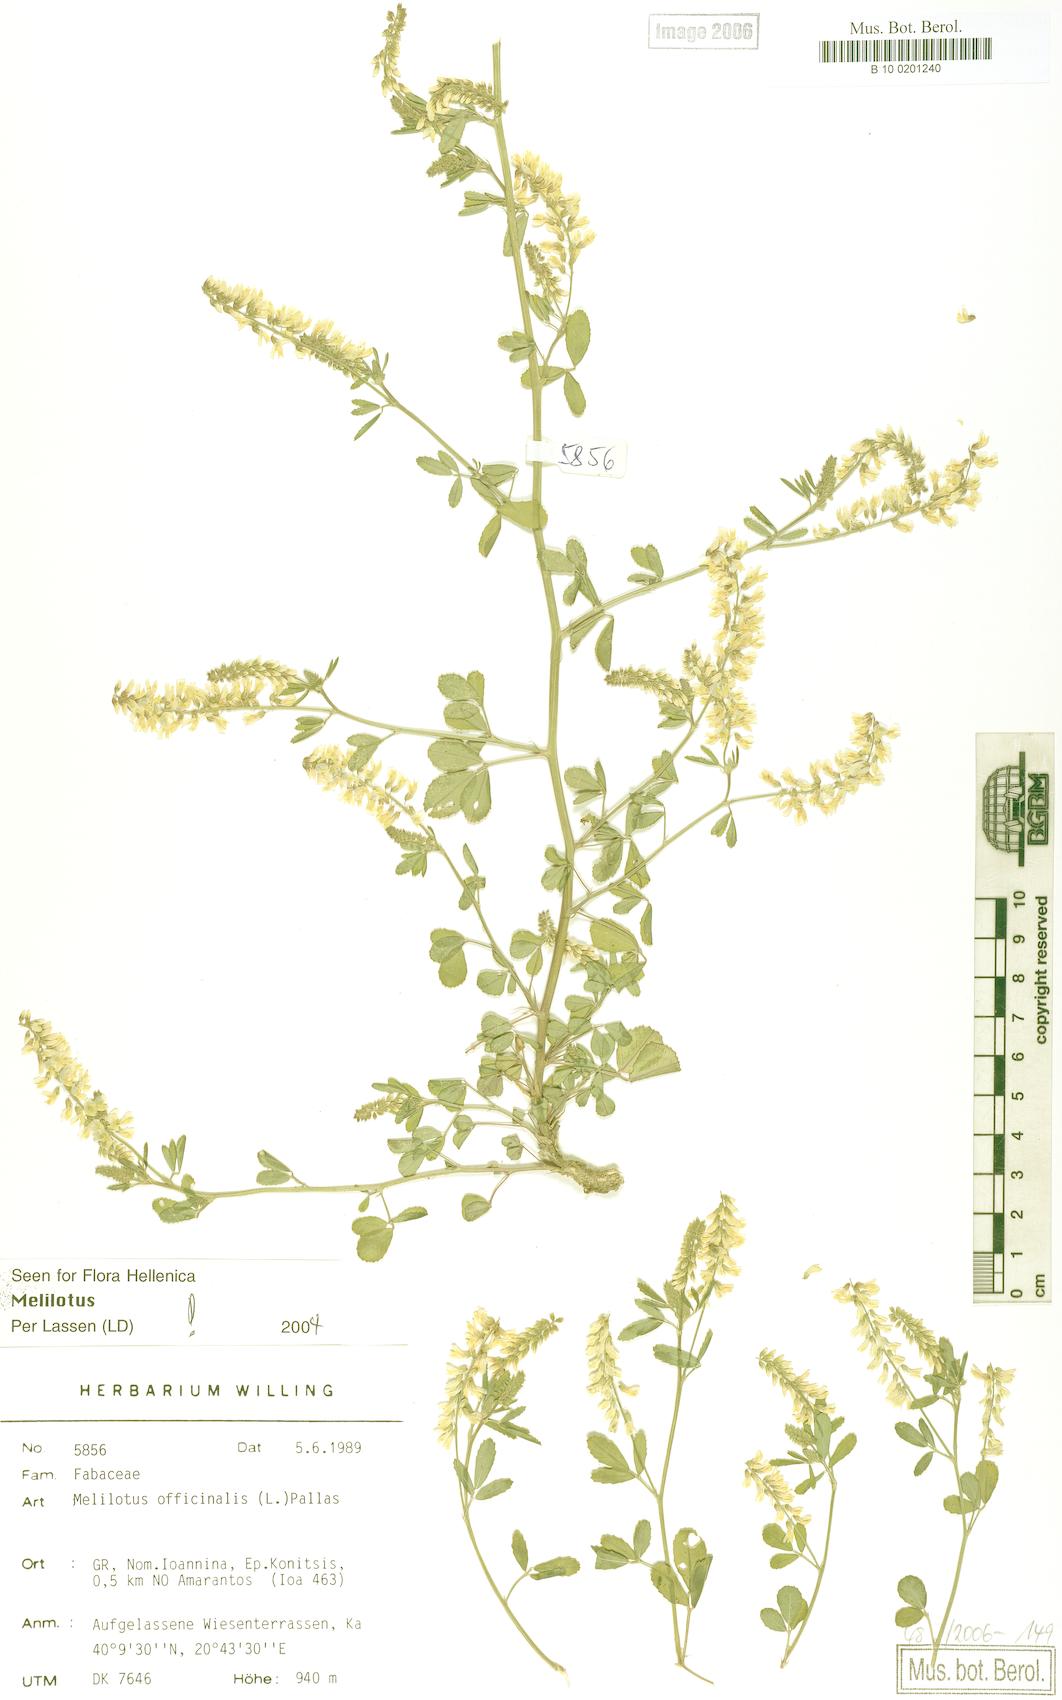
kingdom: Plantae
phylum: Tracheophyta
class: Magnoliopsida
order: Fabales
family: Fabaceae
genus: Melilotus
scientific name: Melilotus officinalis
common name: Sweetclover
